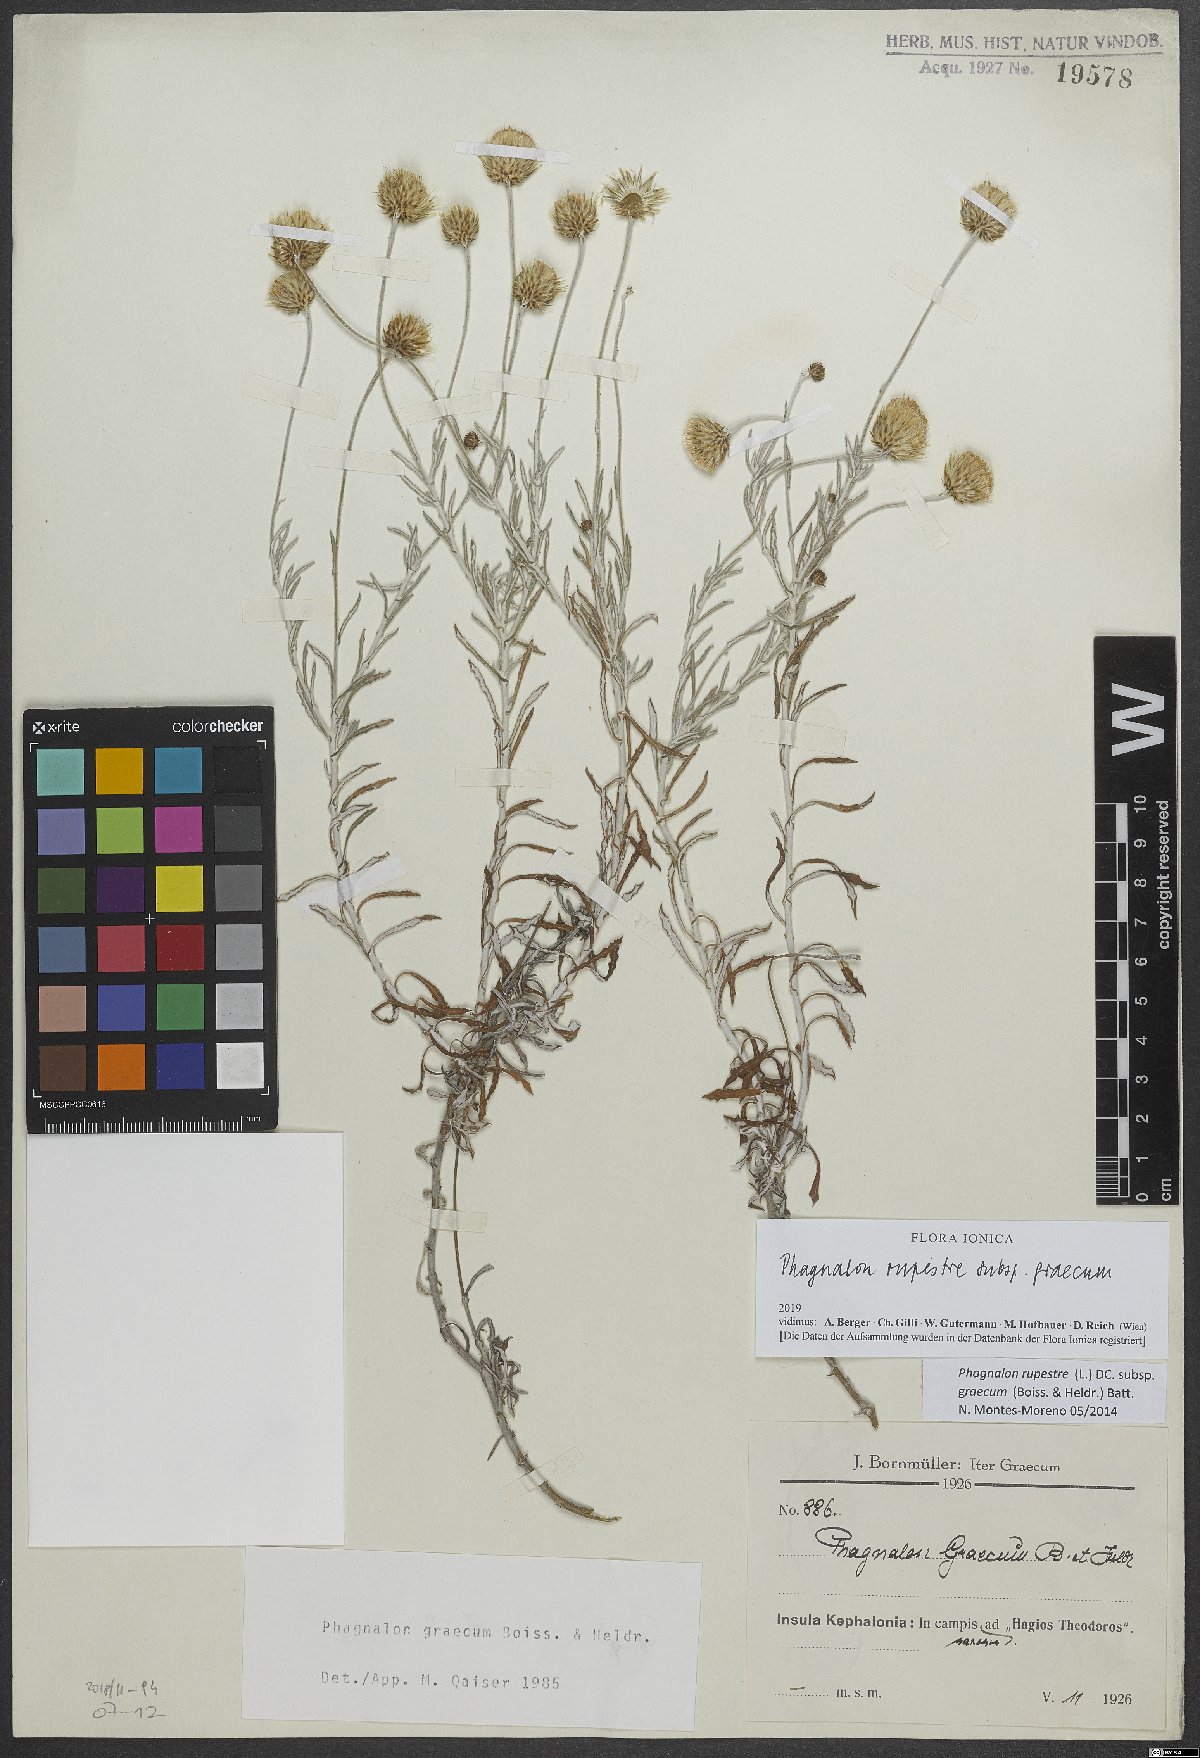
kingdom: Plantae
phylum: Tracheophyta
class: Magnoliopsida
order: Asterales
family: Asteraceae
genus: Phagnalon
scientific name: Phagnalon graecum
